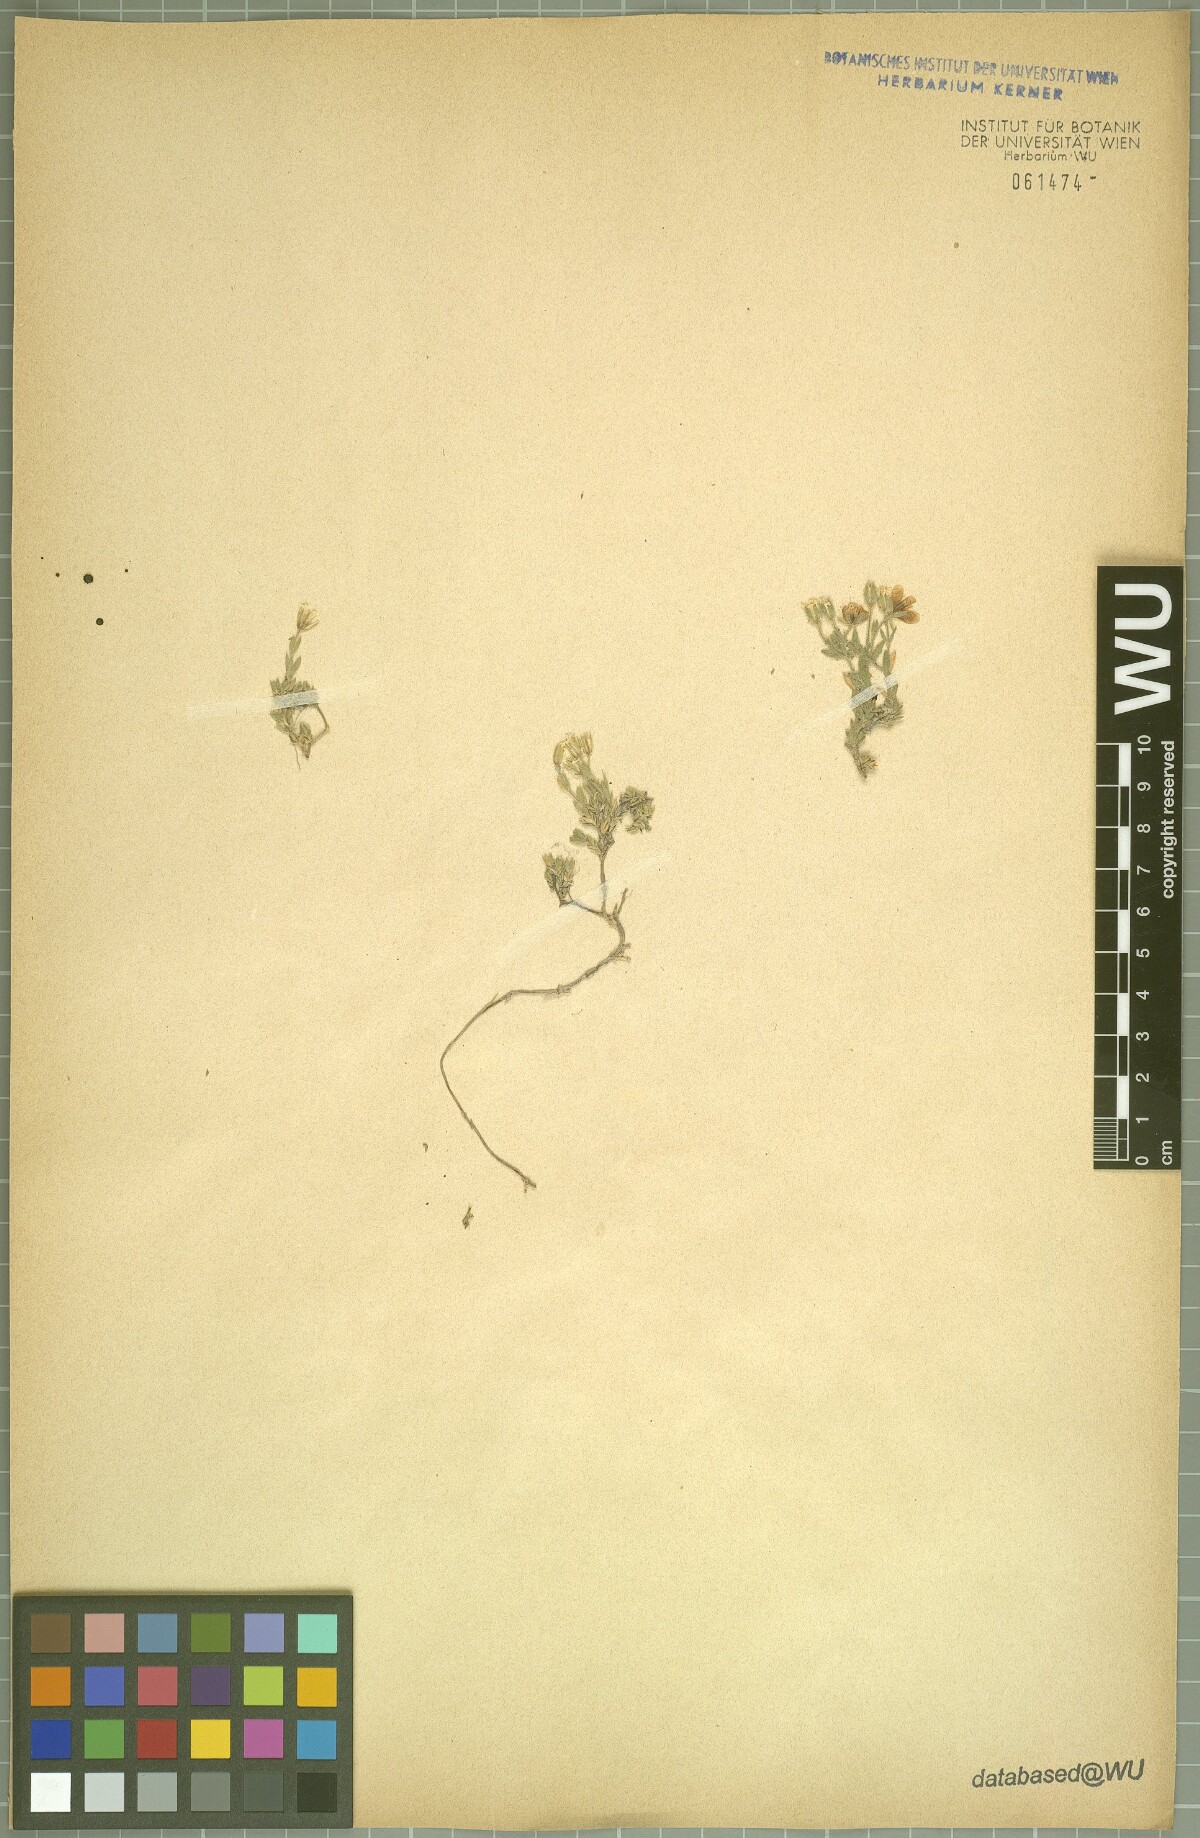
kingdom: Plantae
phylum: Tracheophyta
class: Magnoliopsida
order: Caryophyllales
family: Caryophyllaceae
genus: Arenaria
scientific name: Arenaria huteri
